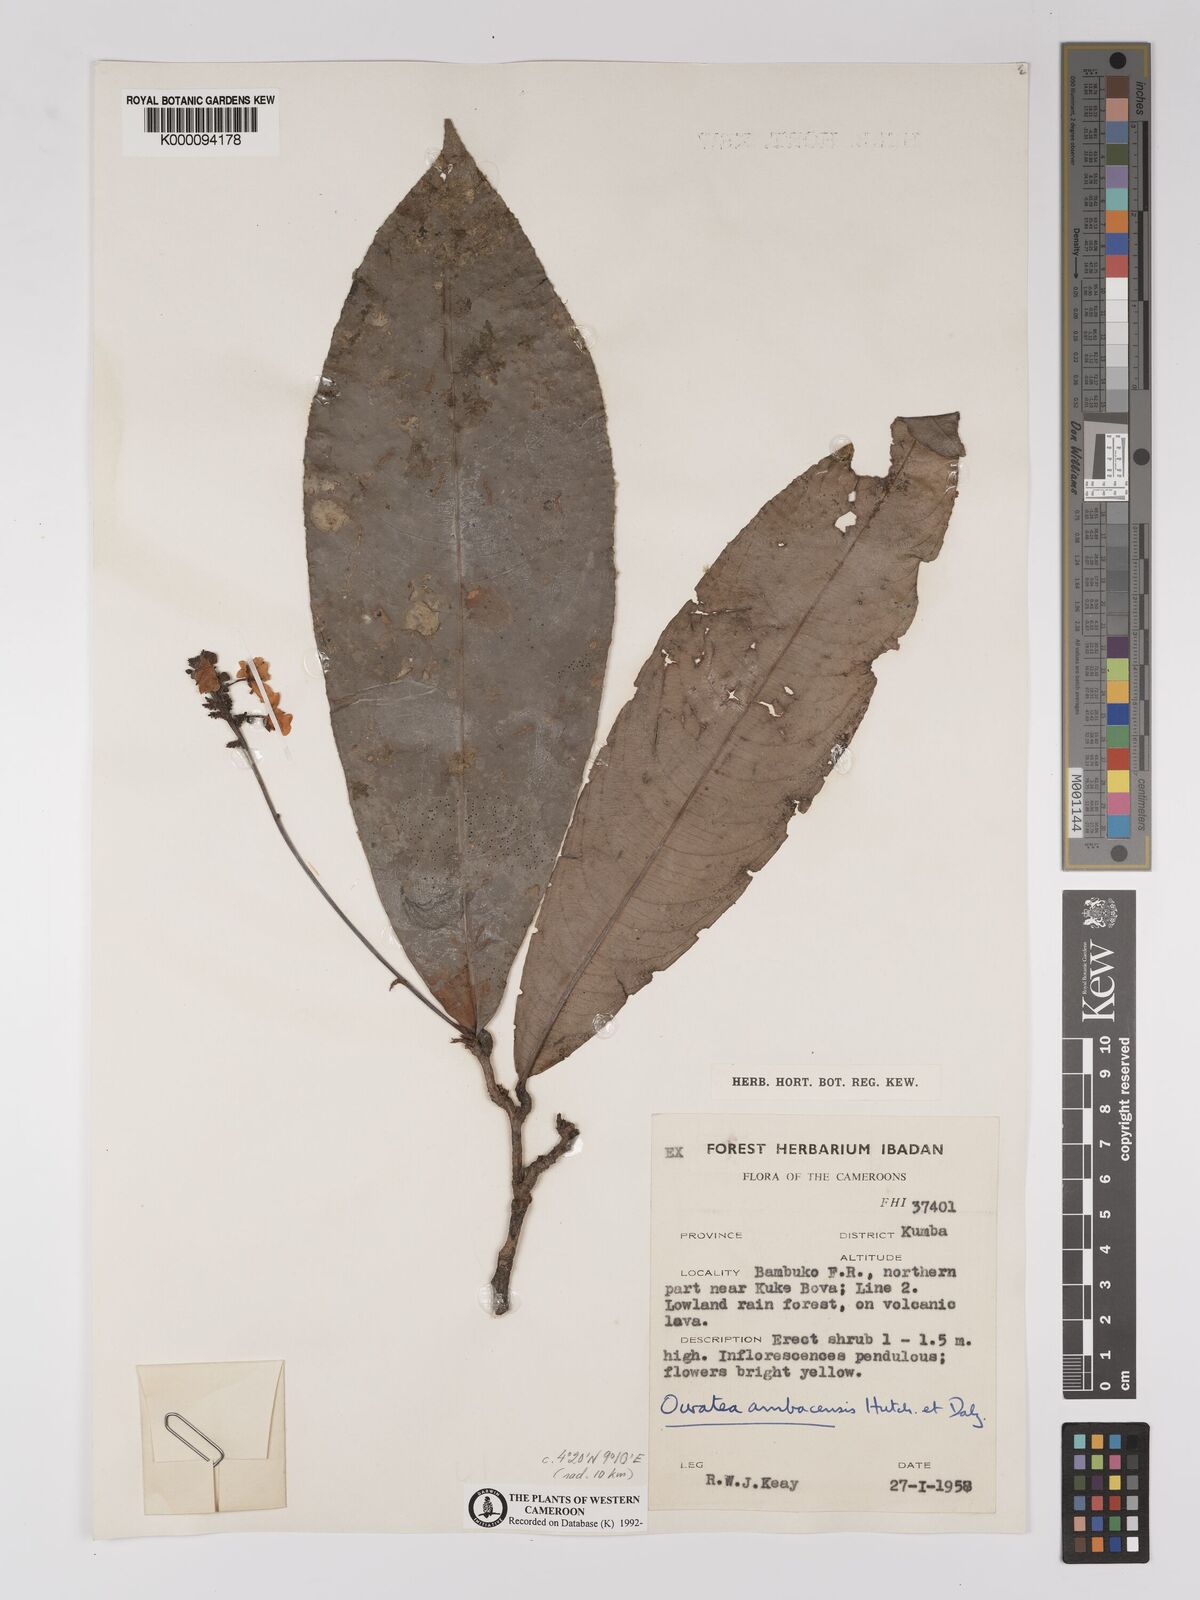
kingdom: Plantae
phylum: Tracheophyta
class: Magnoliopsida
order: Malpighiales
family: Ochnaceae
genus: Campylospermum
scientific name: Campylospermum zenkeri
